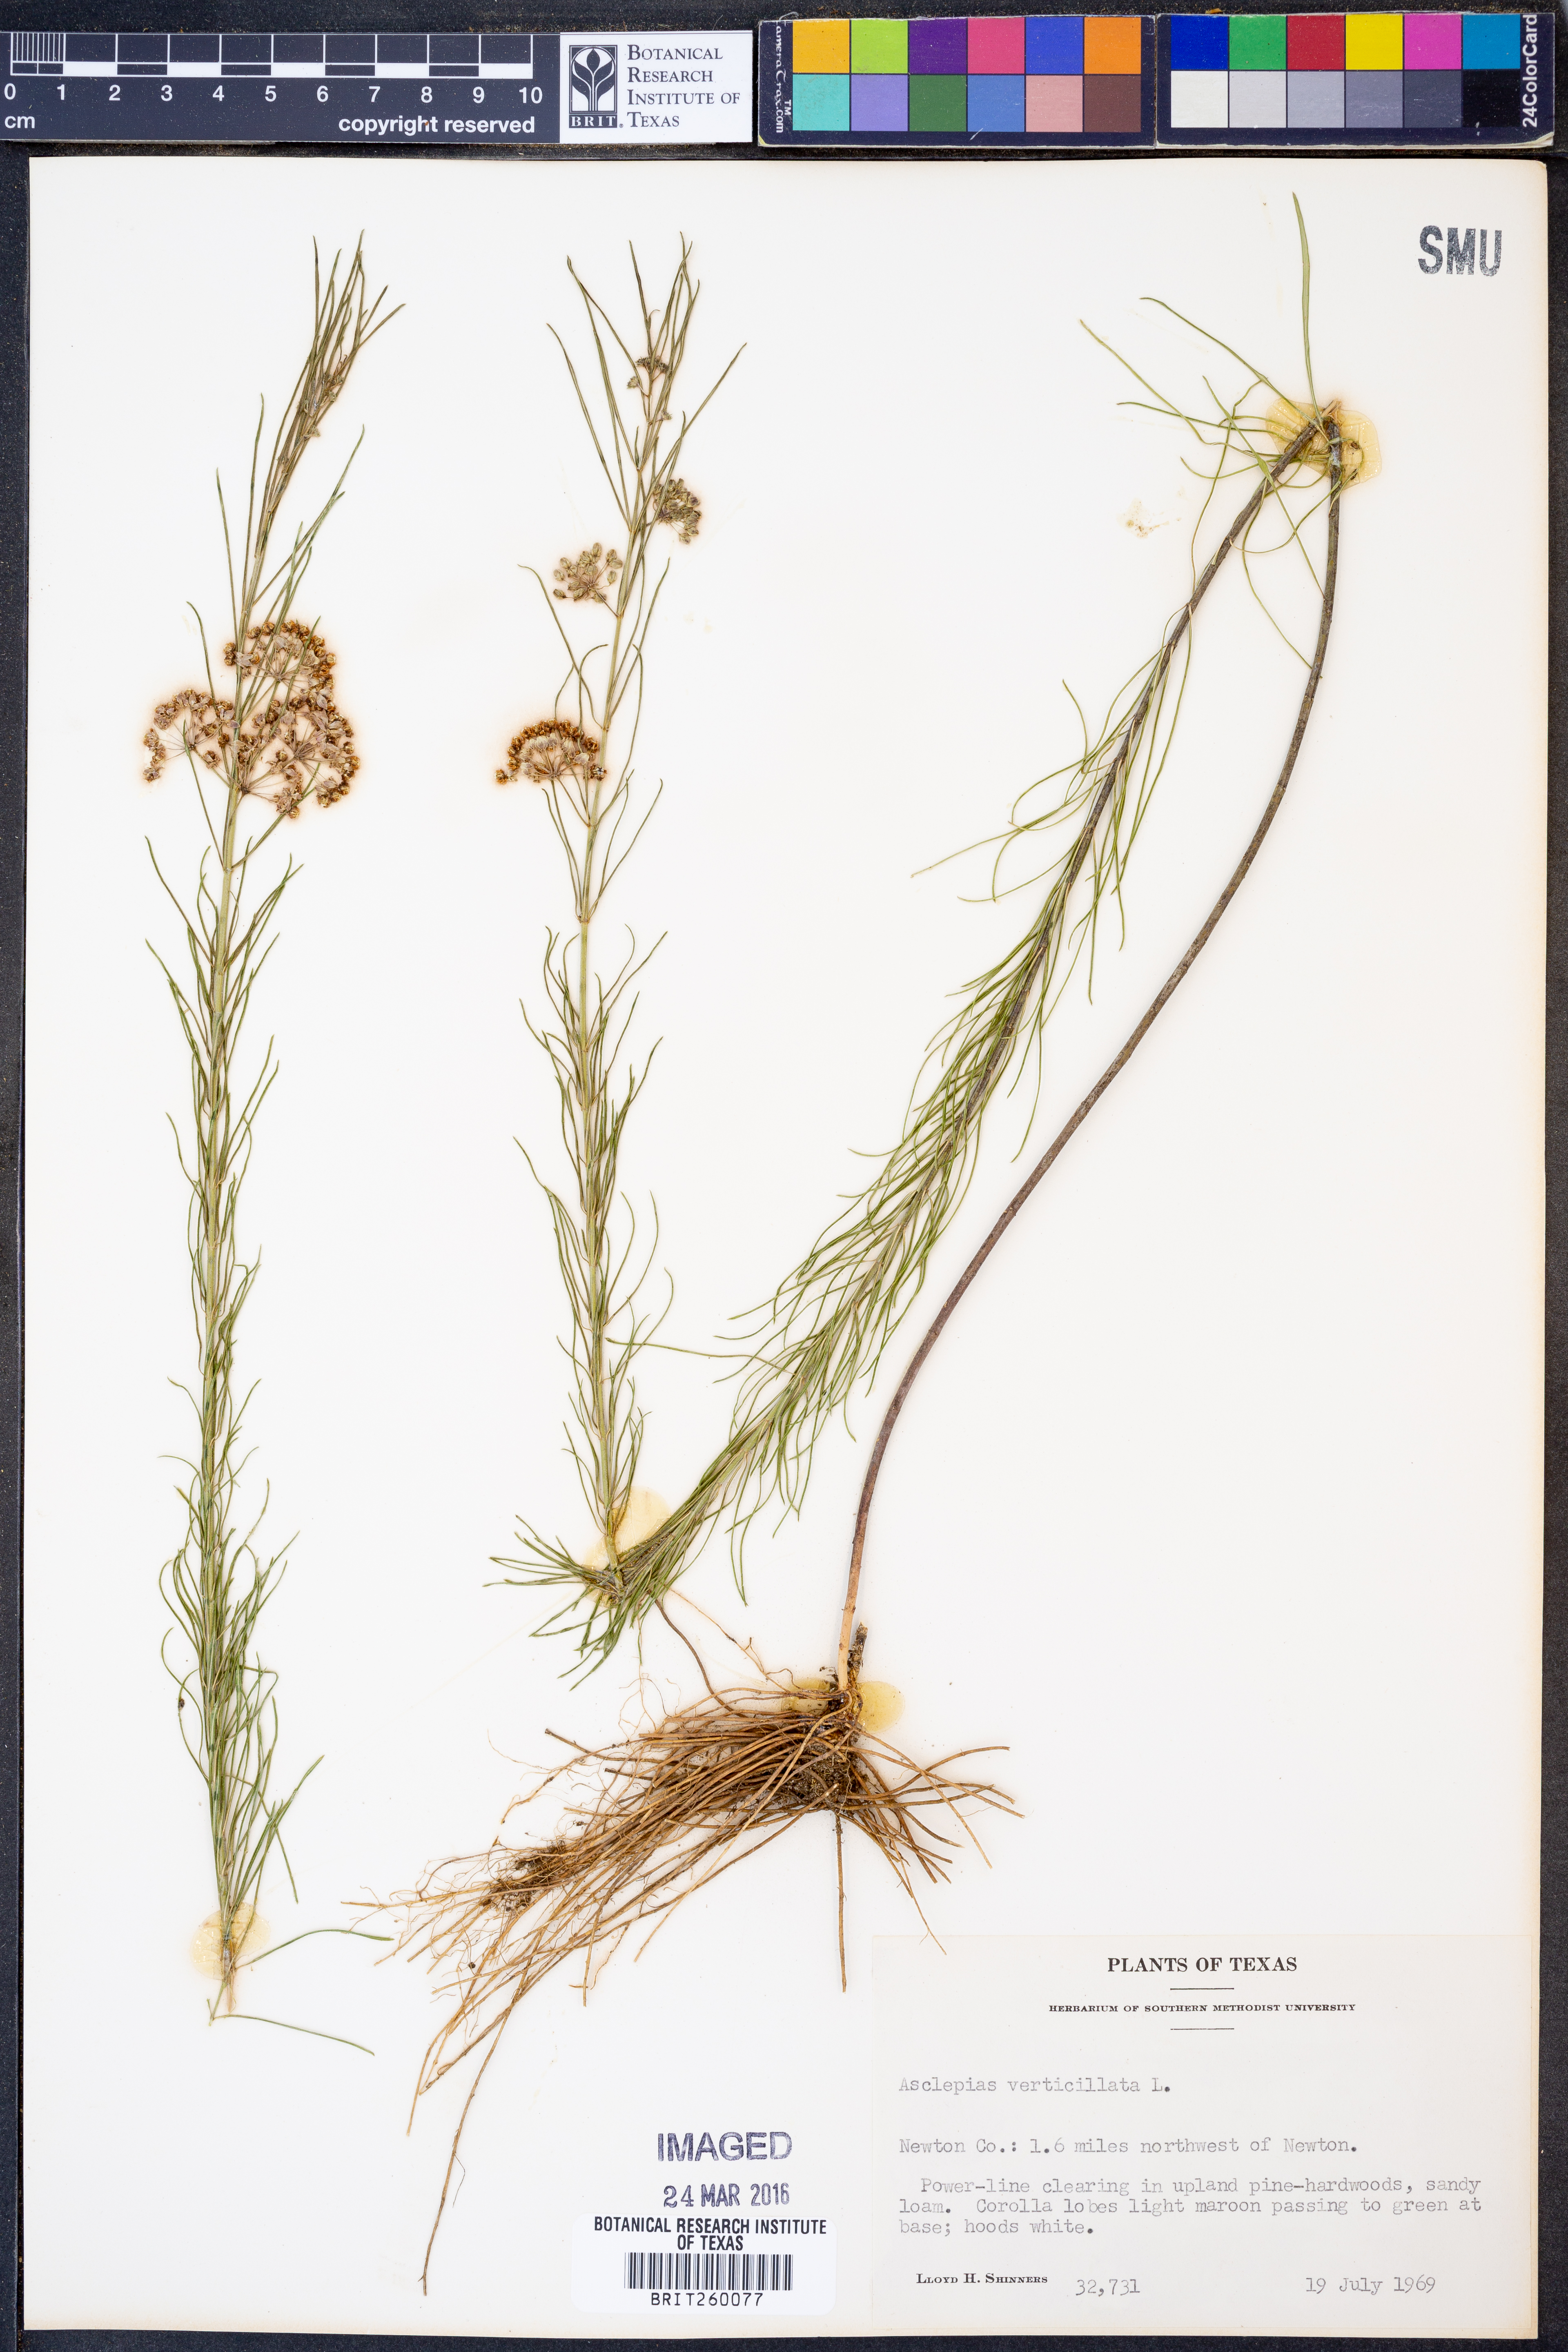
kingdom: Plantae
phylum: Tracheophyta
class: Magnoliopsida
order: Gentianales
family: Apocynaceae
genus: Asclepias
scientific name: Asclepias verticillata
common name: Eastern whorled milkweed
